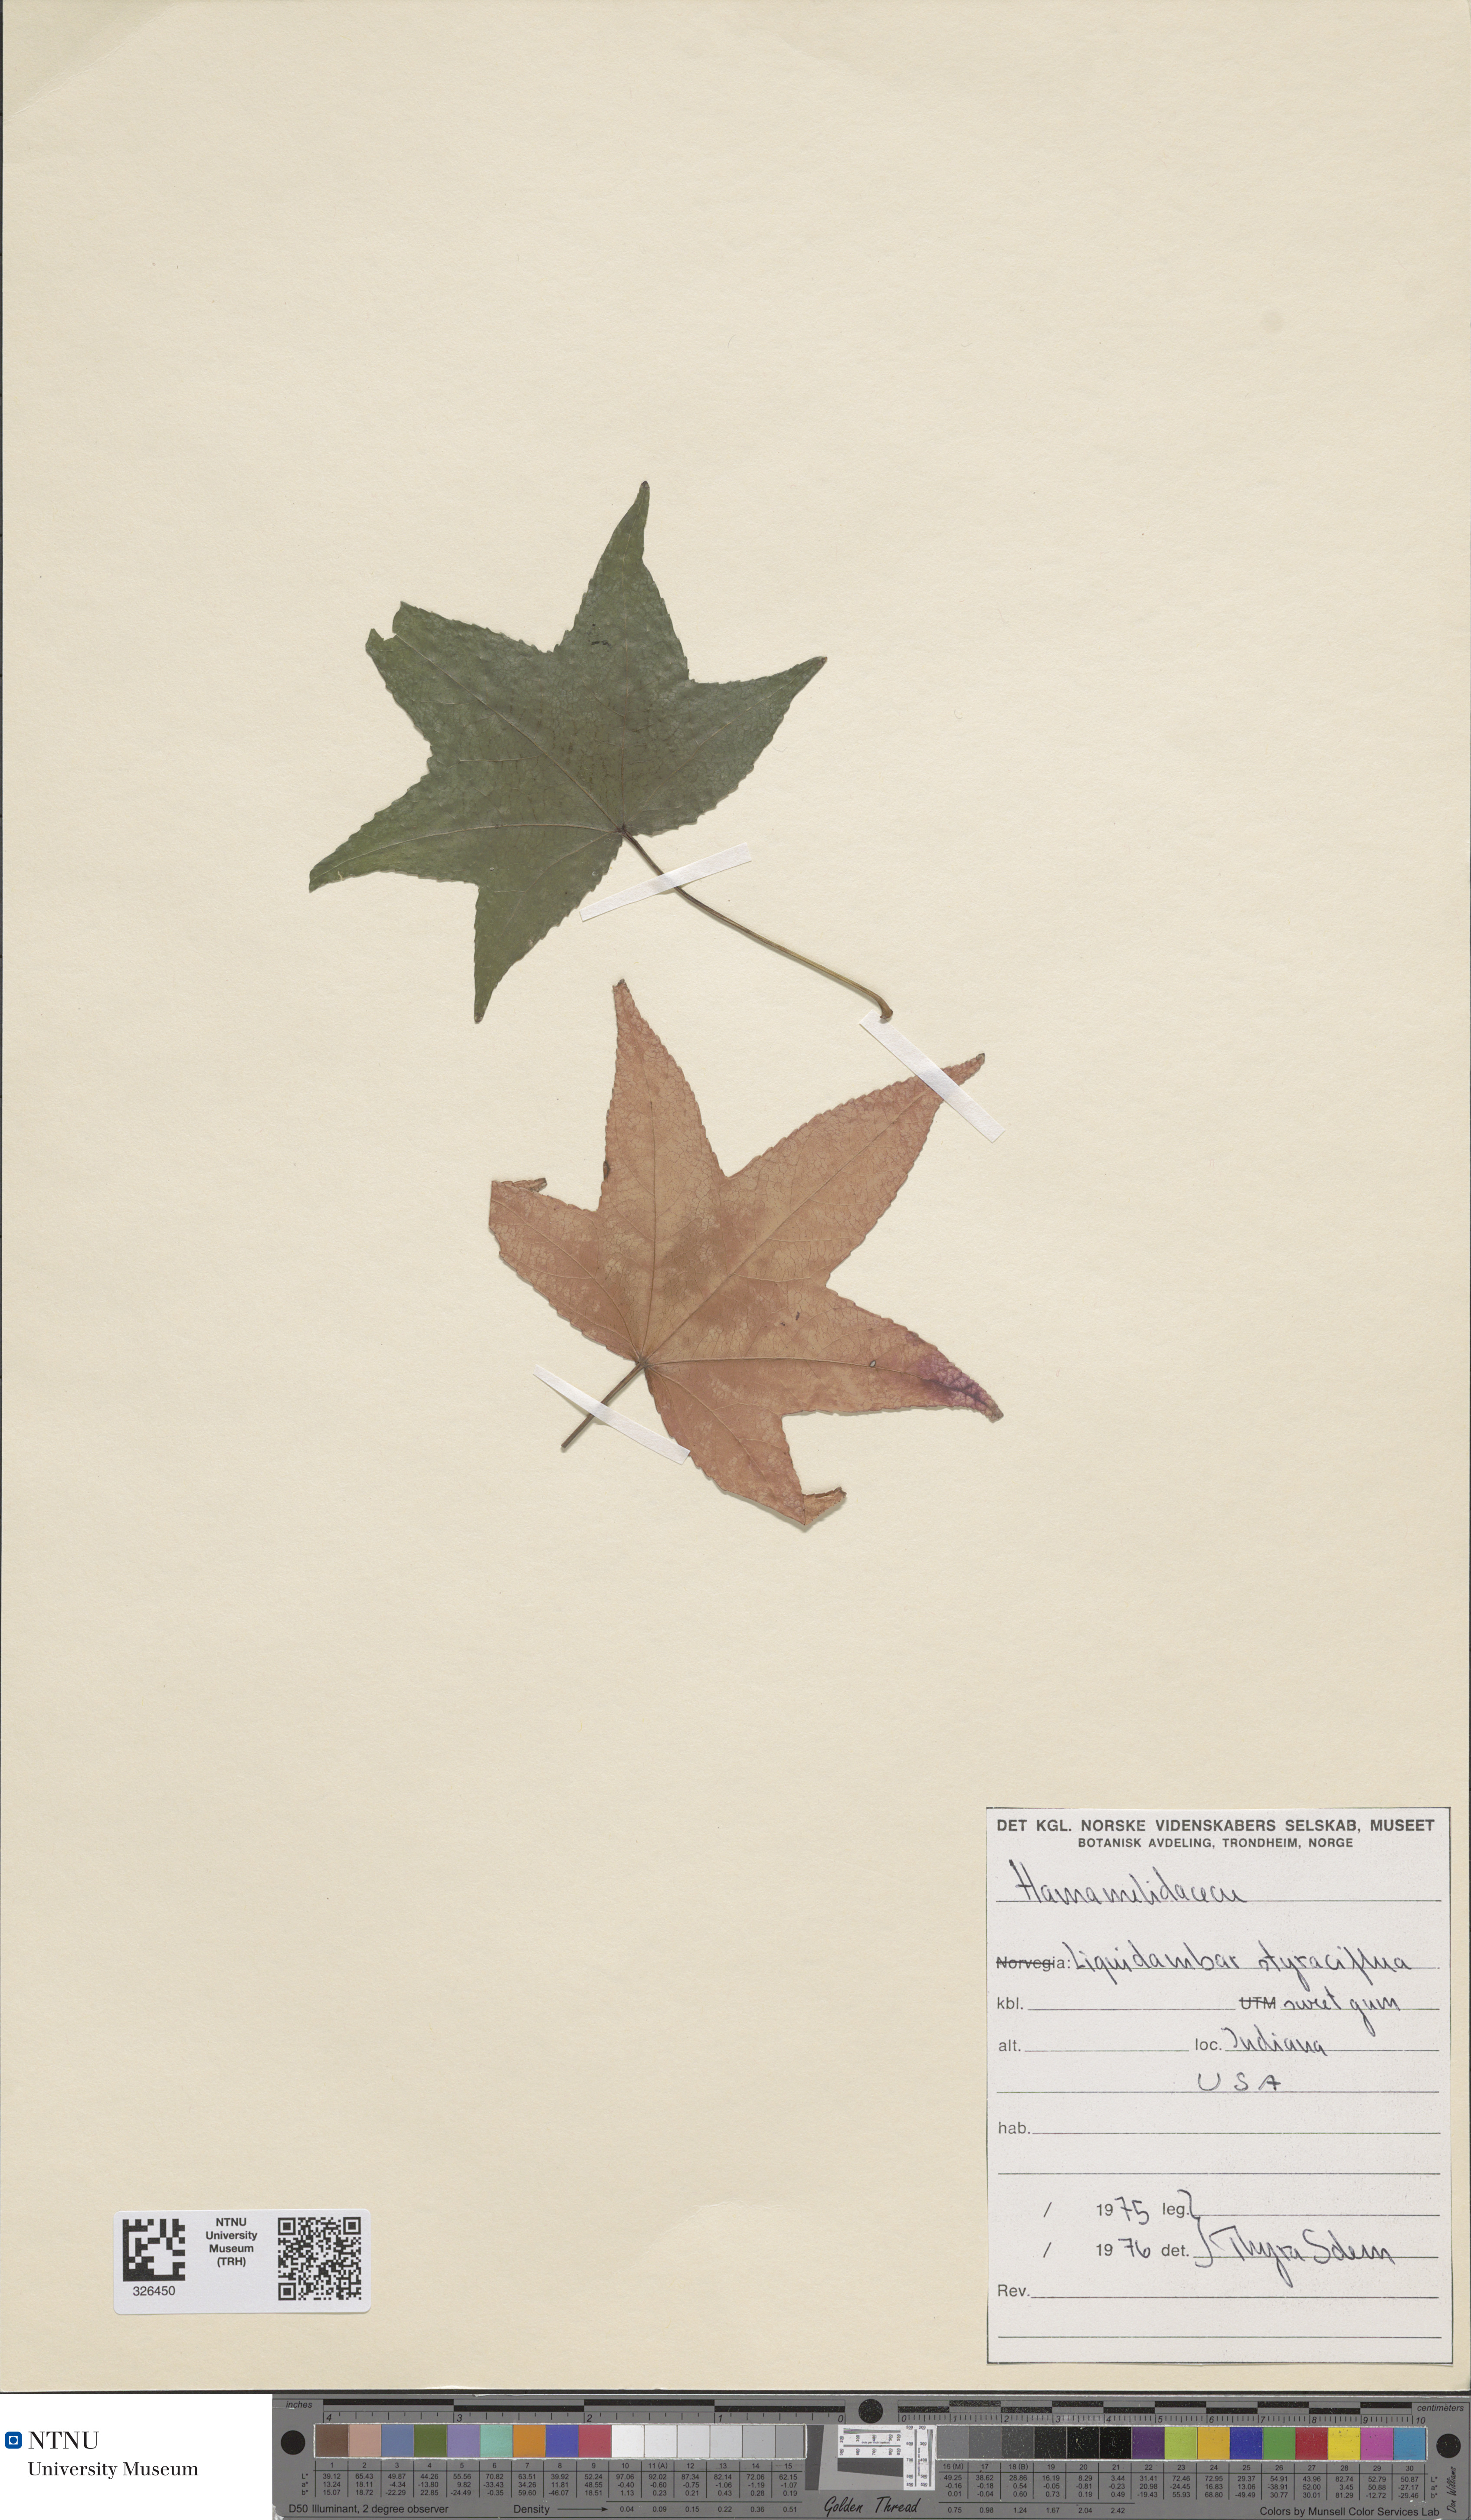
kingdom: Plantae
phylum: Tracheophyta
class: Magnoliopsida
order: Saxifragales
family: Altingiaceae
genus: Liquidambar
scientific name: Liquidambar styraciflua
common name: Sweet gum
